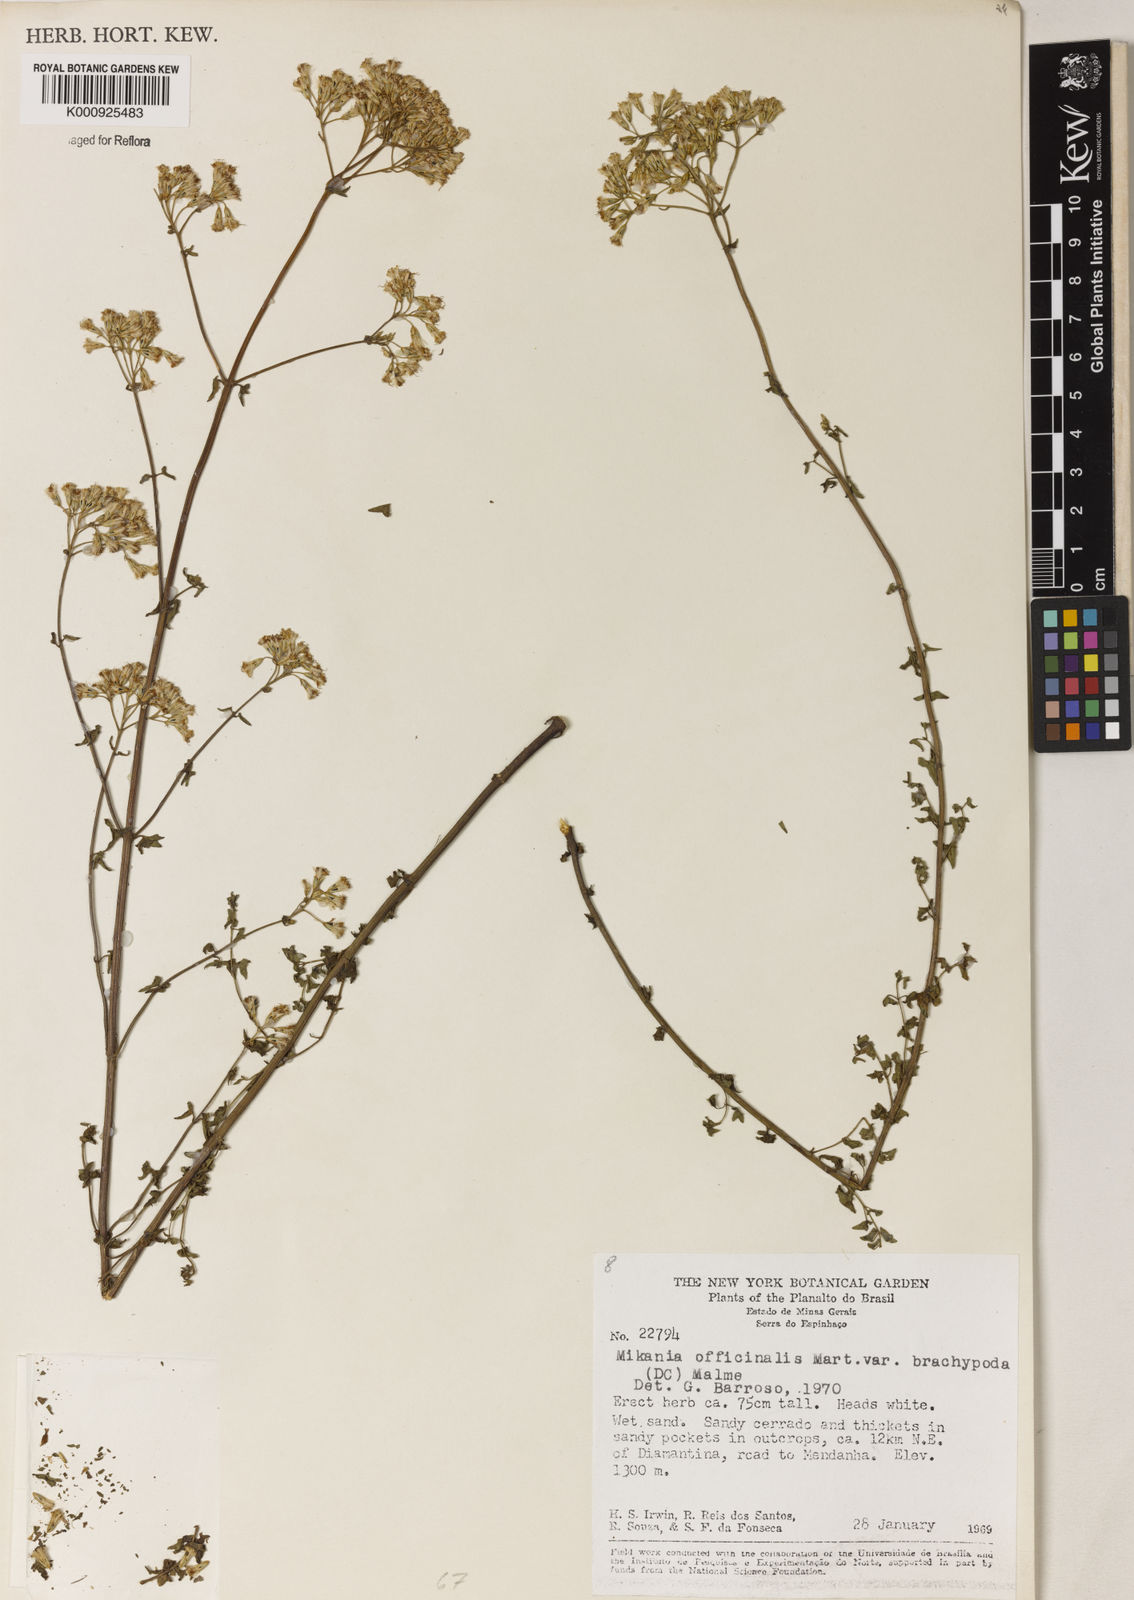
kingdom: Plantae
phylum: Tracheophyta
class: Magnoliopsida
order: Asterales
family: Asteraceae
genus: Mikania
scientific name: Mikania officinalis
